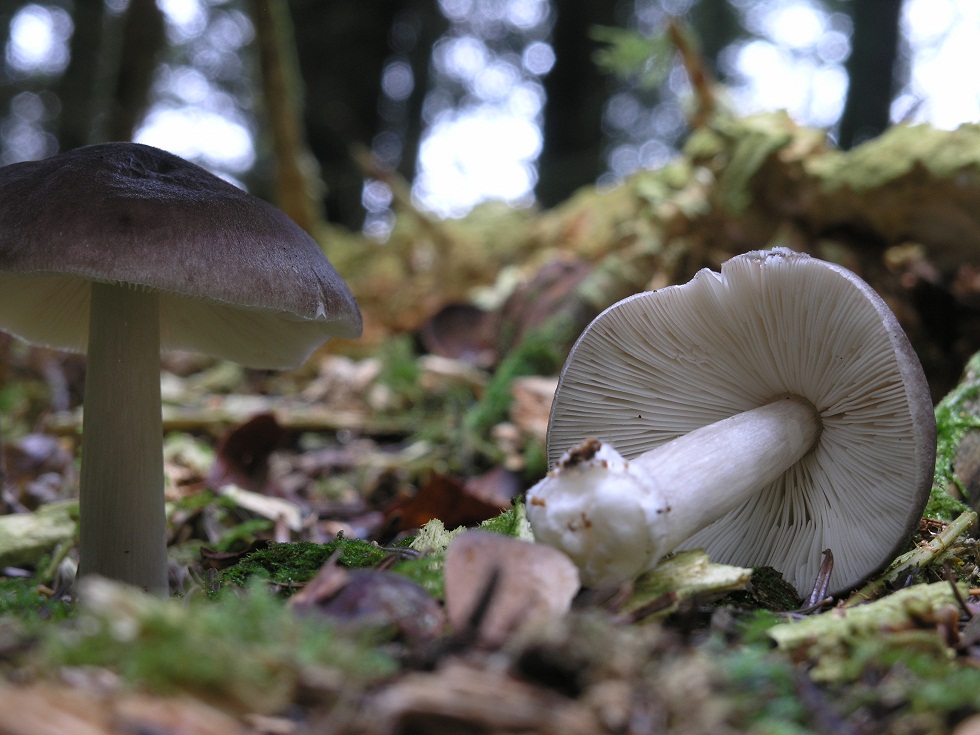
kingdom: Fungi
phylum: Basidiomycota
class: Agaricomycetes
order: Agaricales
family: Pluteaceae
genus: Pluteus
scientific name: Pluteus primus
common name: tidlig skærmhat
